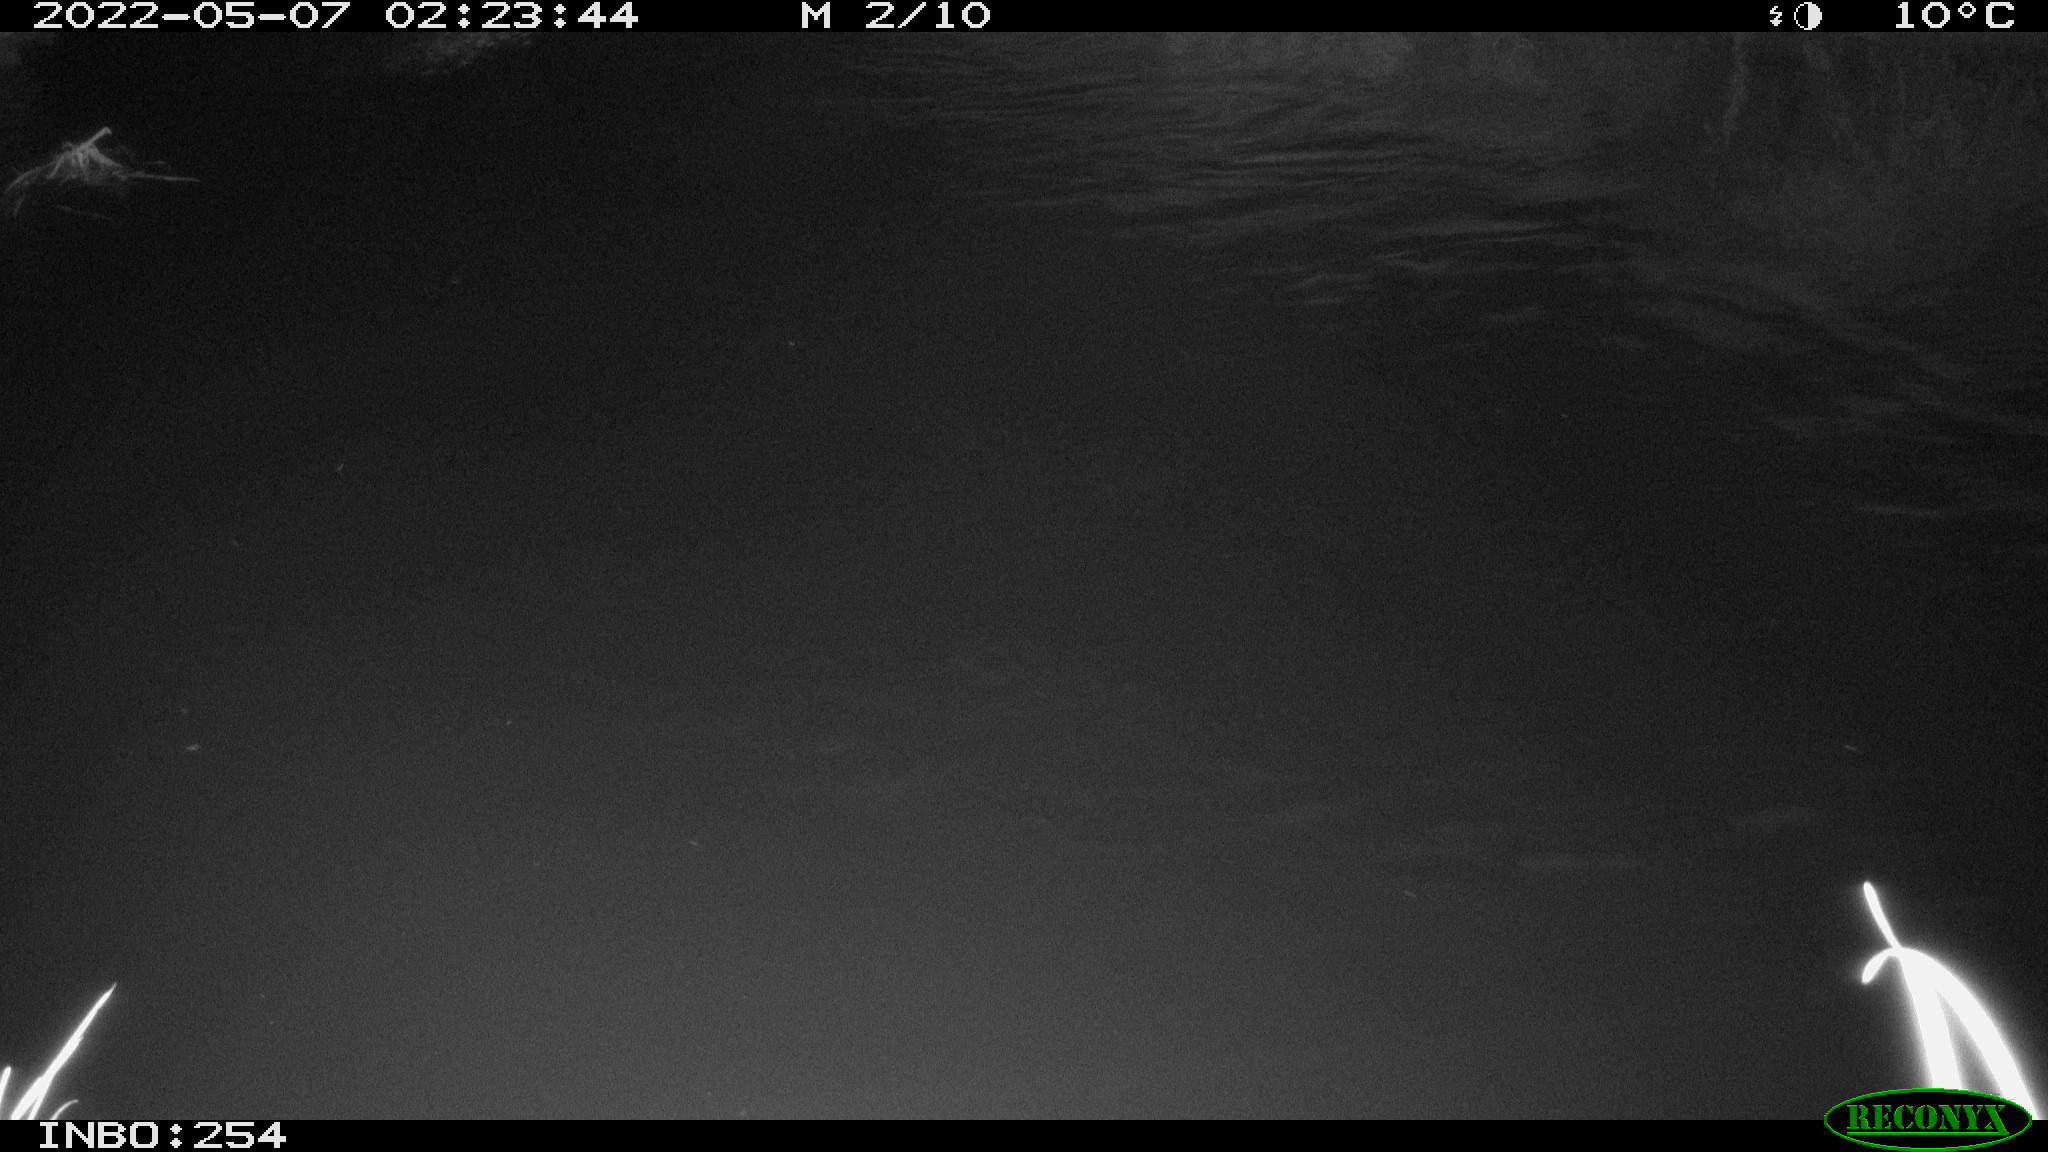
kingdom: Animalia
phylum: Chordata
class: Aves
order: Anseriformes
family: Anatidae
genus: Anas
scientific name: Anas platyrhynchos
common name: Mallard
